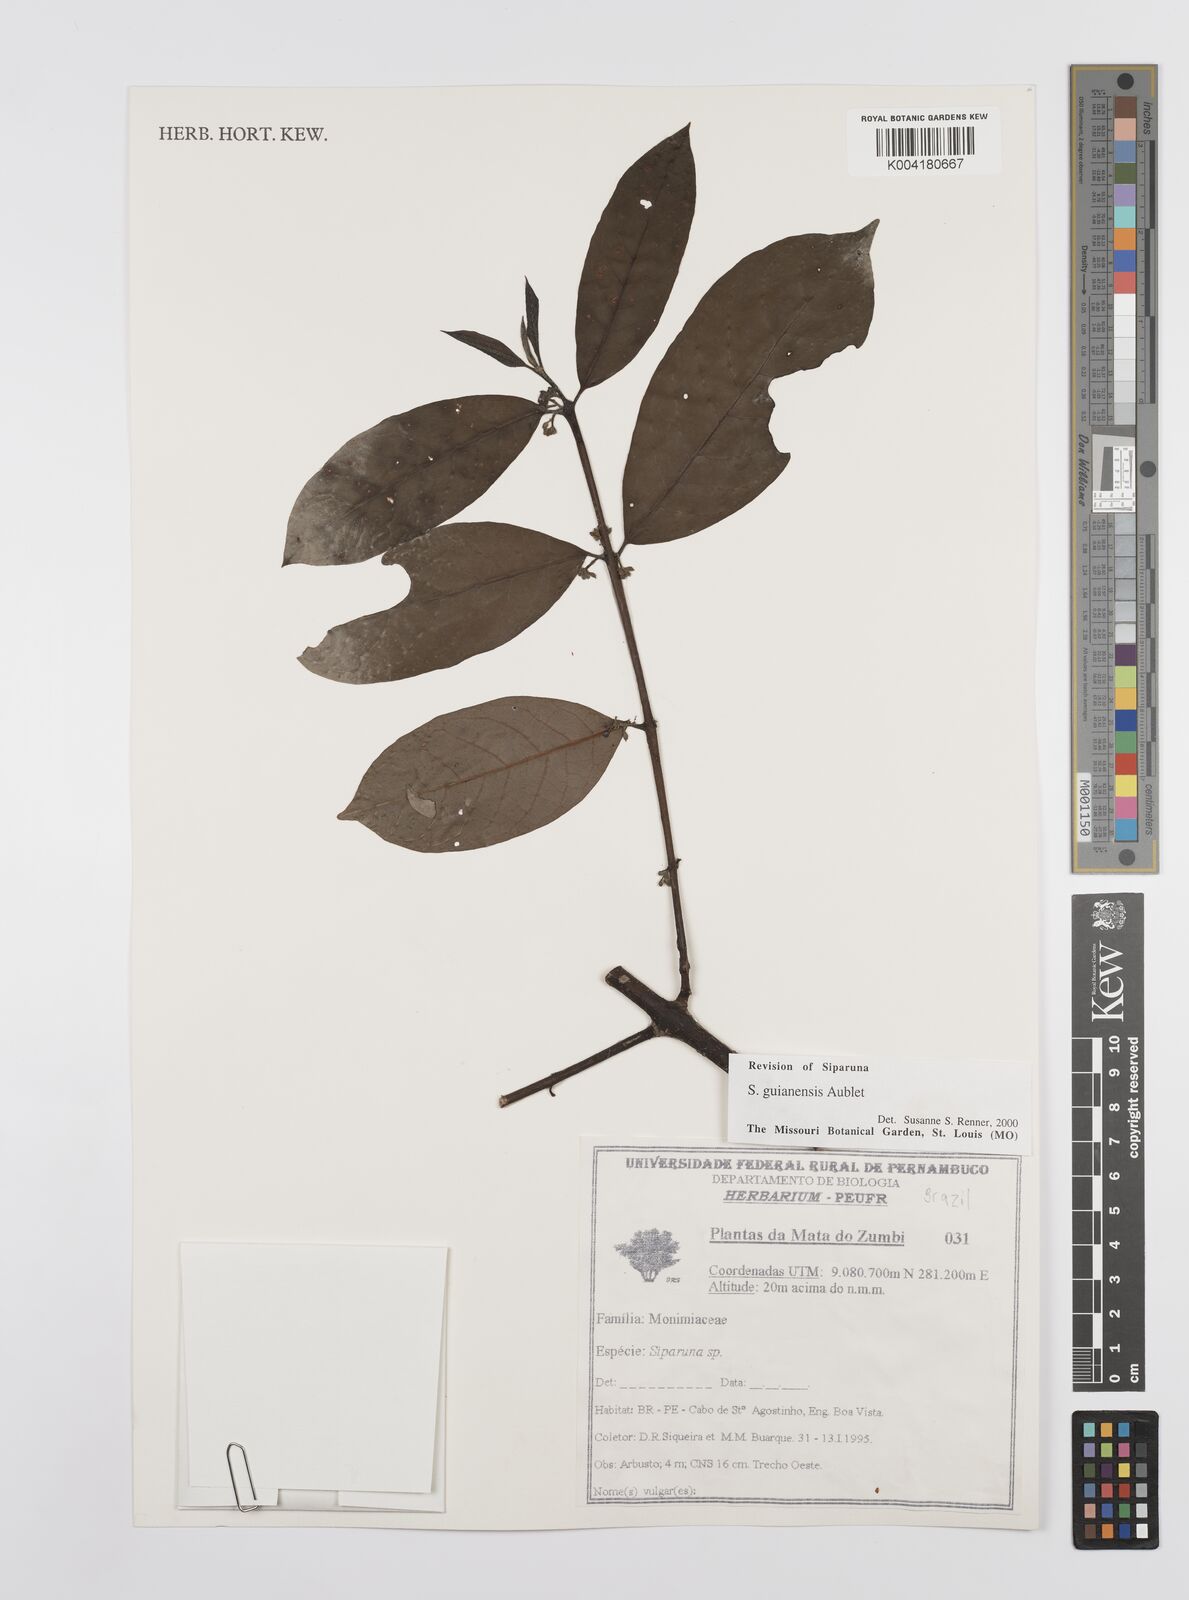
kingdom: Plantae
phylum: Tracheophyta
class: Magnoliopsida
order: Laurales
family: Siparunaceae
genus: Siparuna
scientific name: Siparuna guianensis
